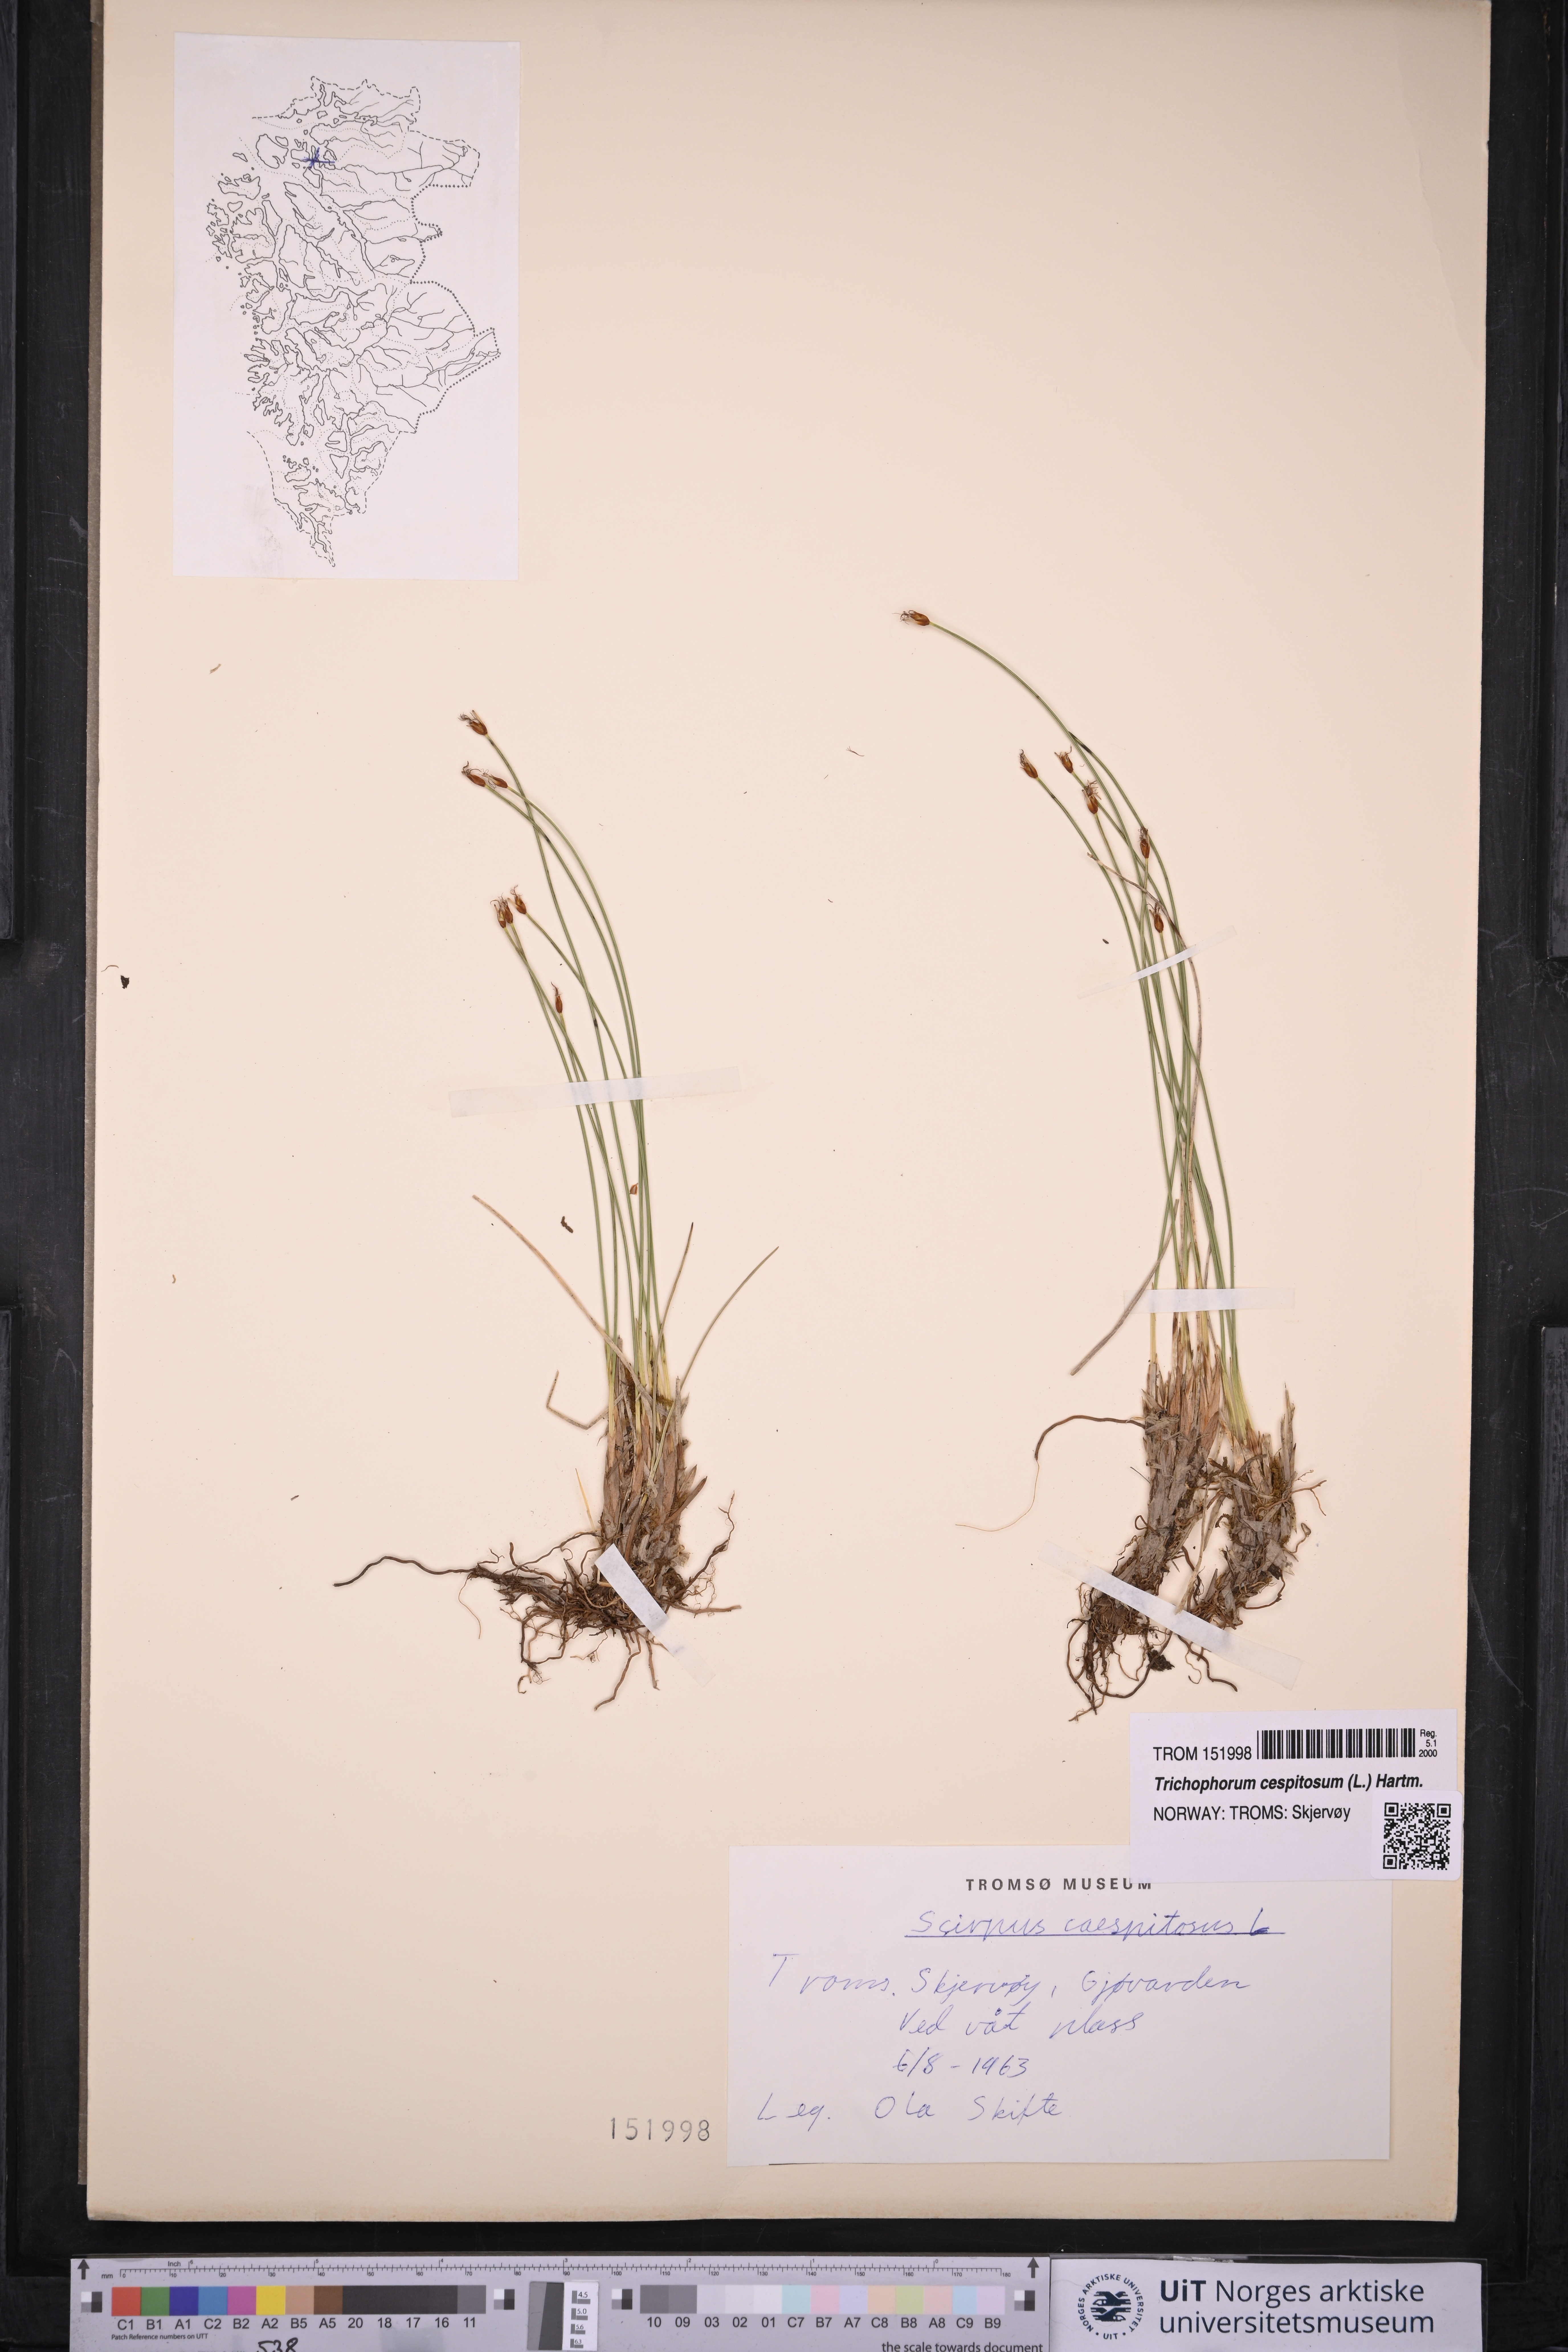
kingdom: Plantae
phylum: Tracheophyta
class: Liliopsida
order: Poales
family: Cyperaceae
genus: Trichophorum
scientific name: Trichophorum cespitosum
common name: Cespitose bulrush
